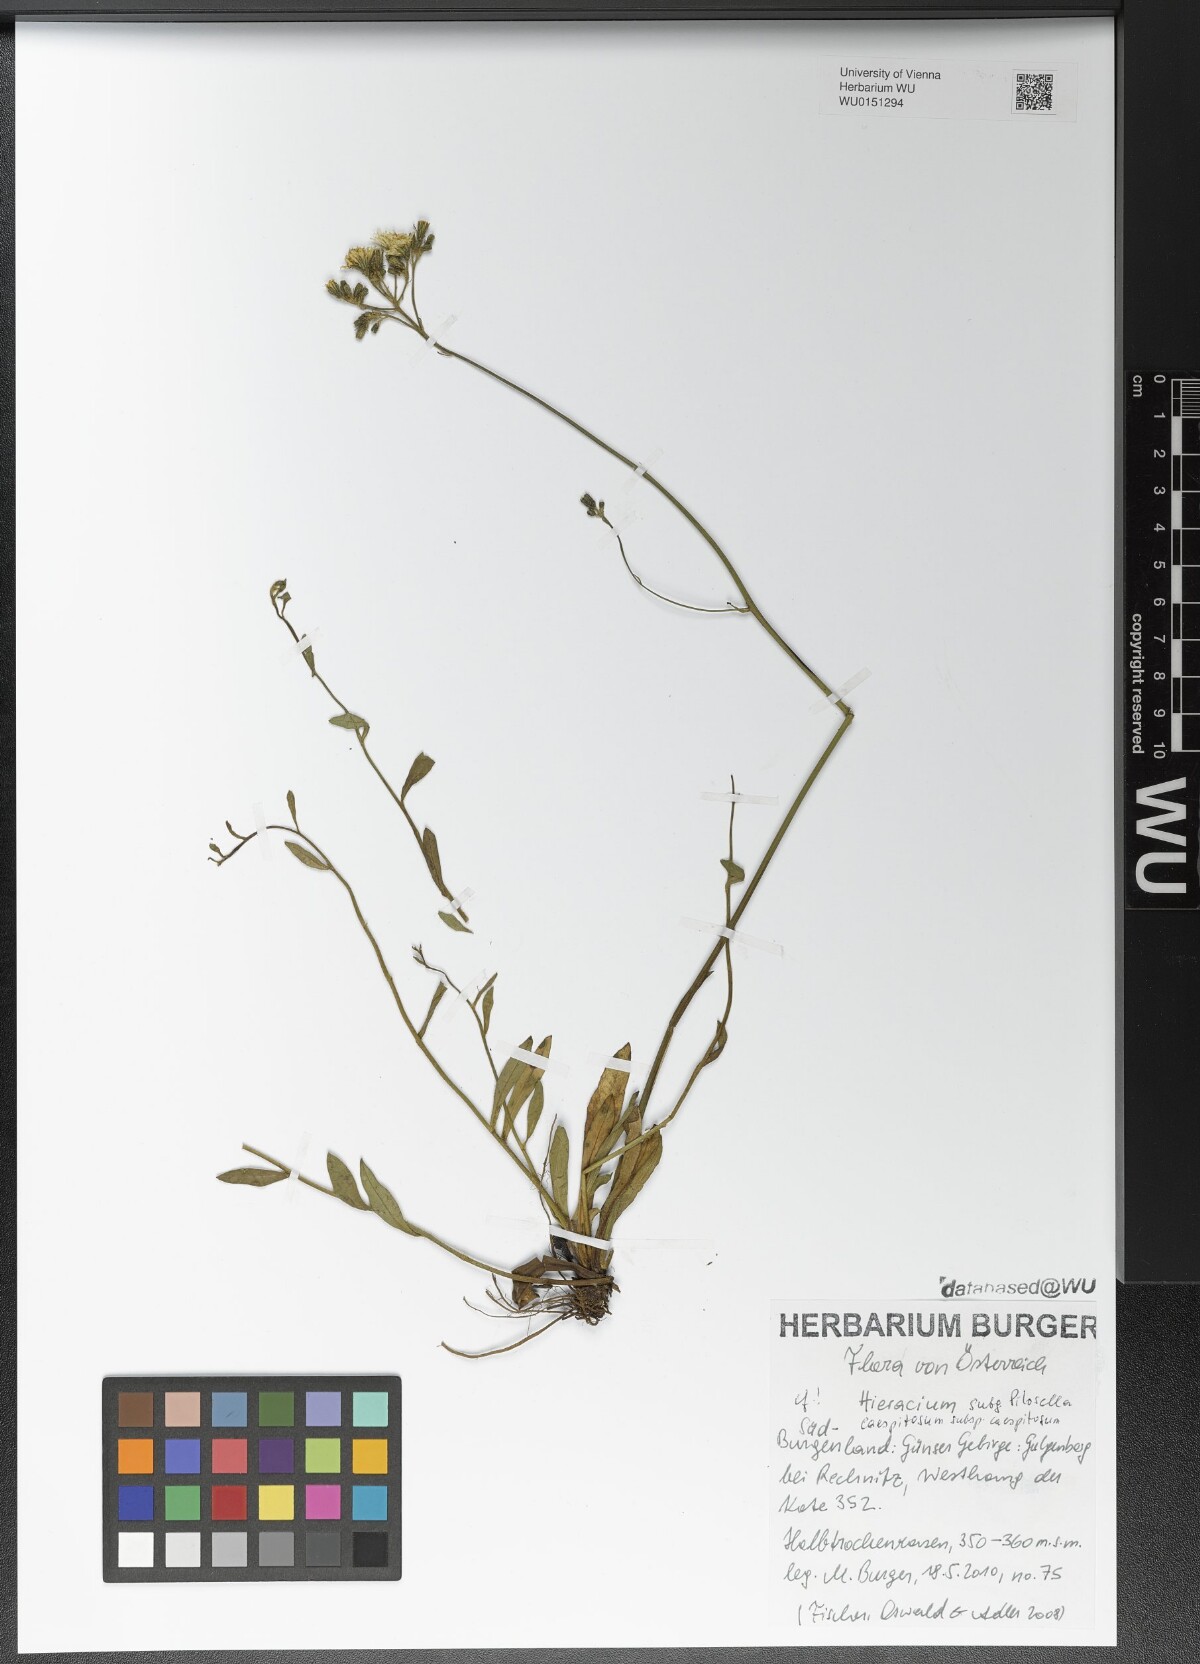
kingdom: Plantae
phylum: Tracheophyta
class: Magnoliopsida
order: Asterales
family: Asteraceae
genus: Pilosella
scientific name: Pilosella caespitosa
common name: Yellow fox-and-cubs
